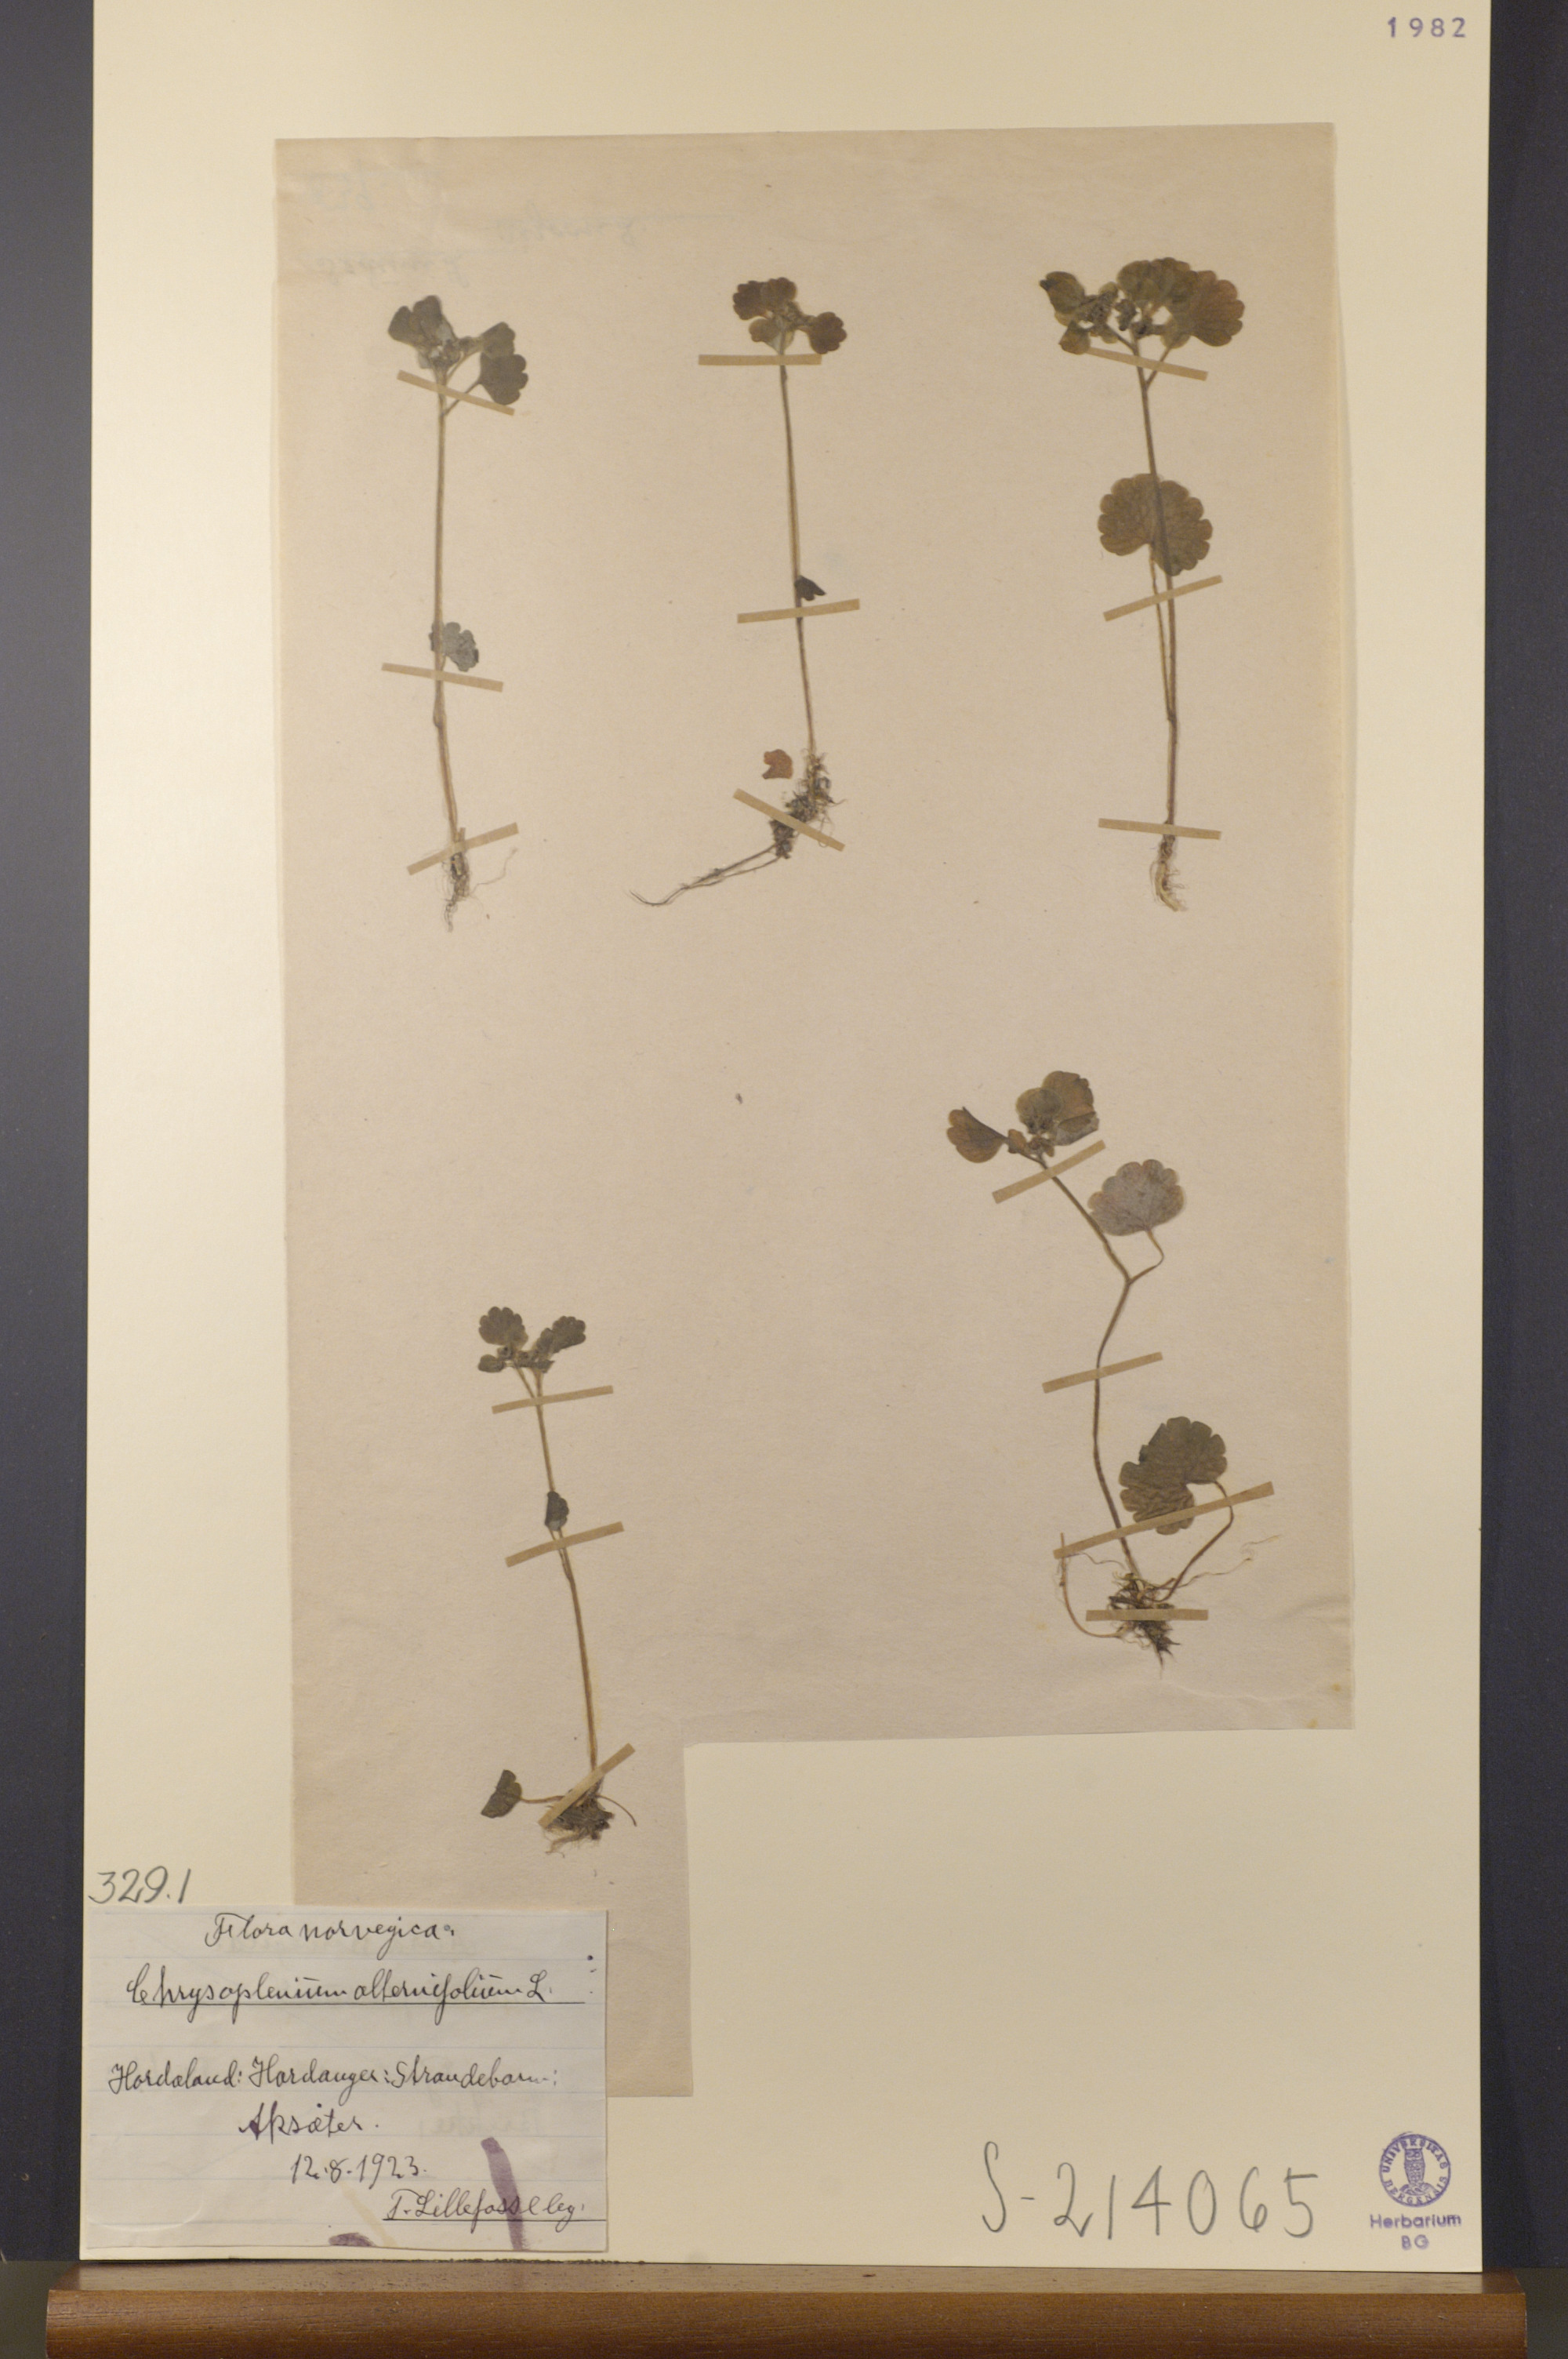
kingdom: Plantae
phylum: Tracheophyta
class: Magnoliopsida
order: Saxifragales
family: Saxifragaceae
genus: Chrysosplenium
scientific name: Chrysosplenium alternifolium
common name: Alternate-leaved golden-saxifrage
